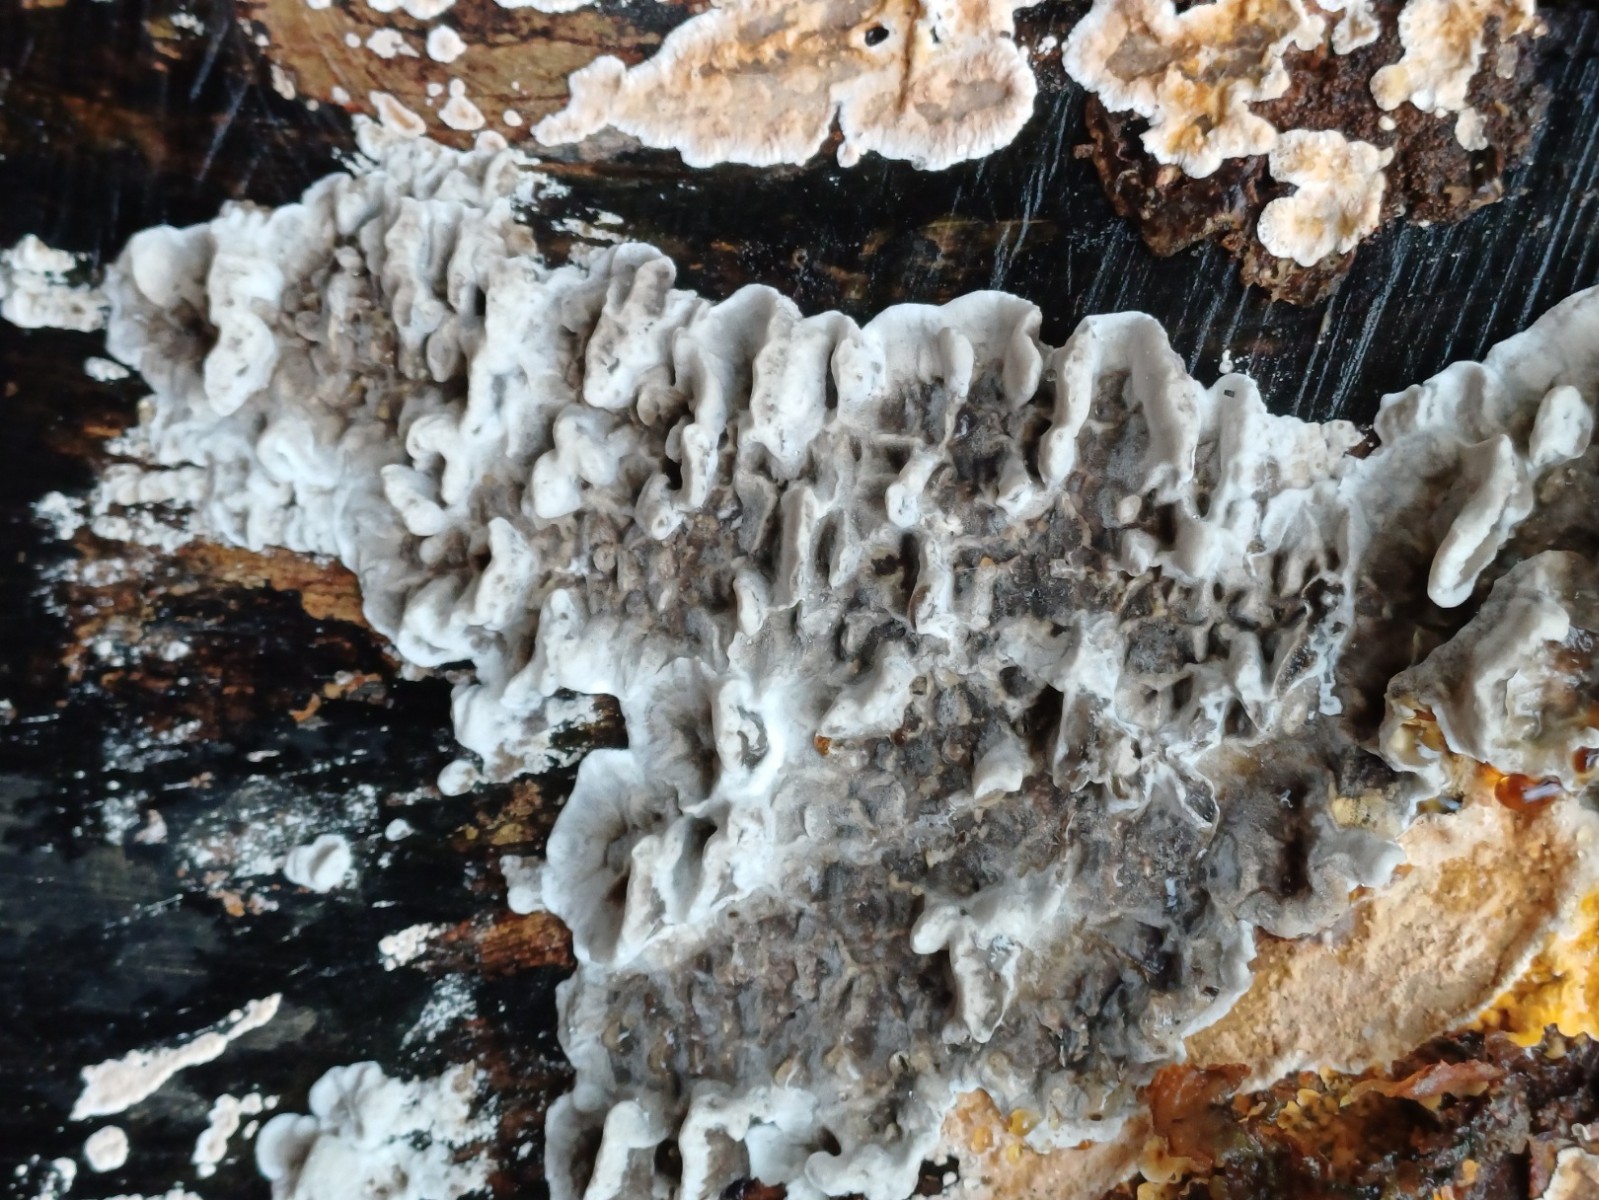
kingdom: Fungi
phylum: Basidiomycota
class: Agaricomycetes
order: Polyporales
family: Phanerochaetaceae
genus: Bjerkandera
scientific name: Bjerkandera adusta
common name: sveden sodporesvamp
